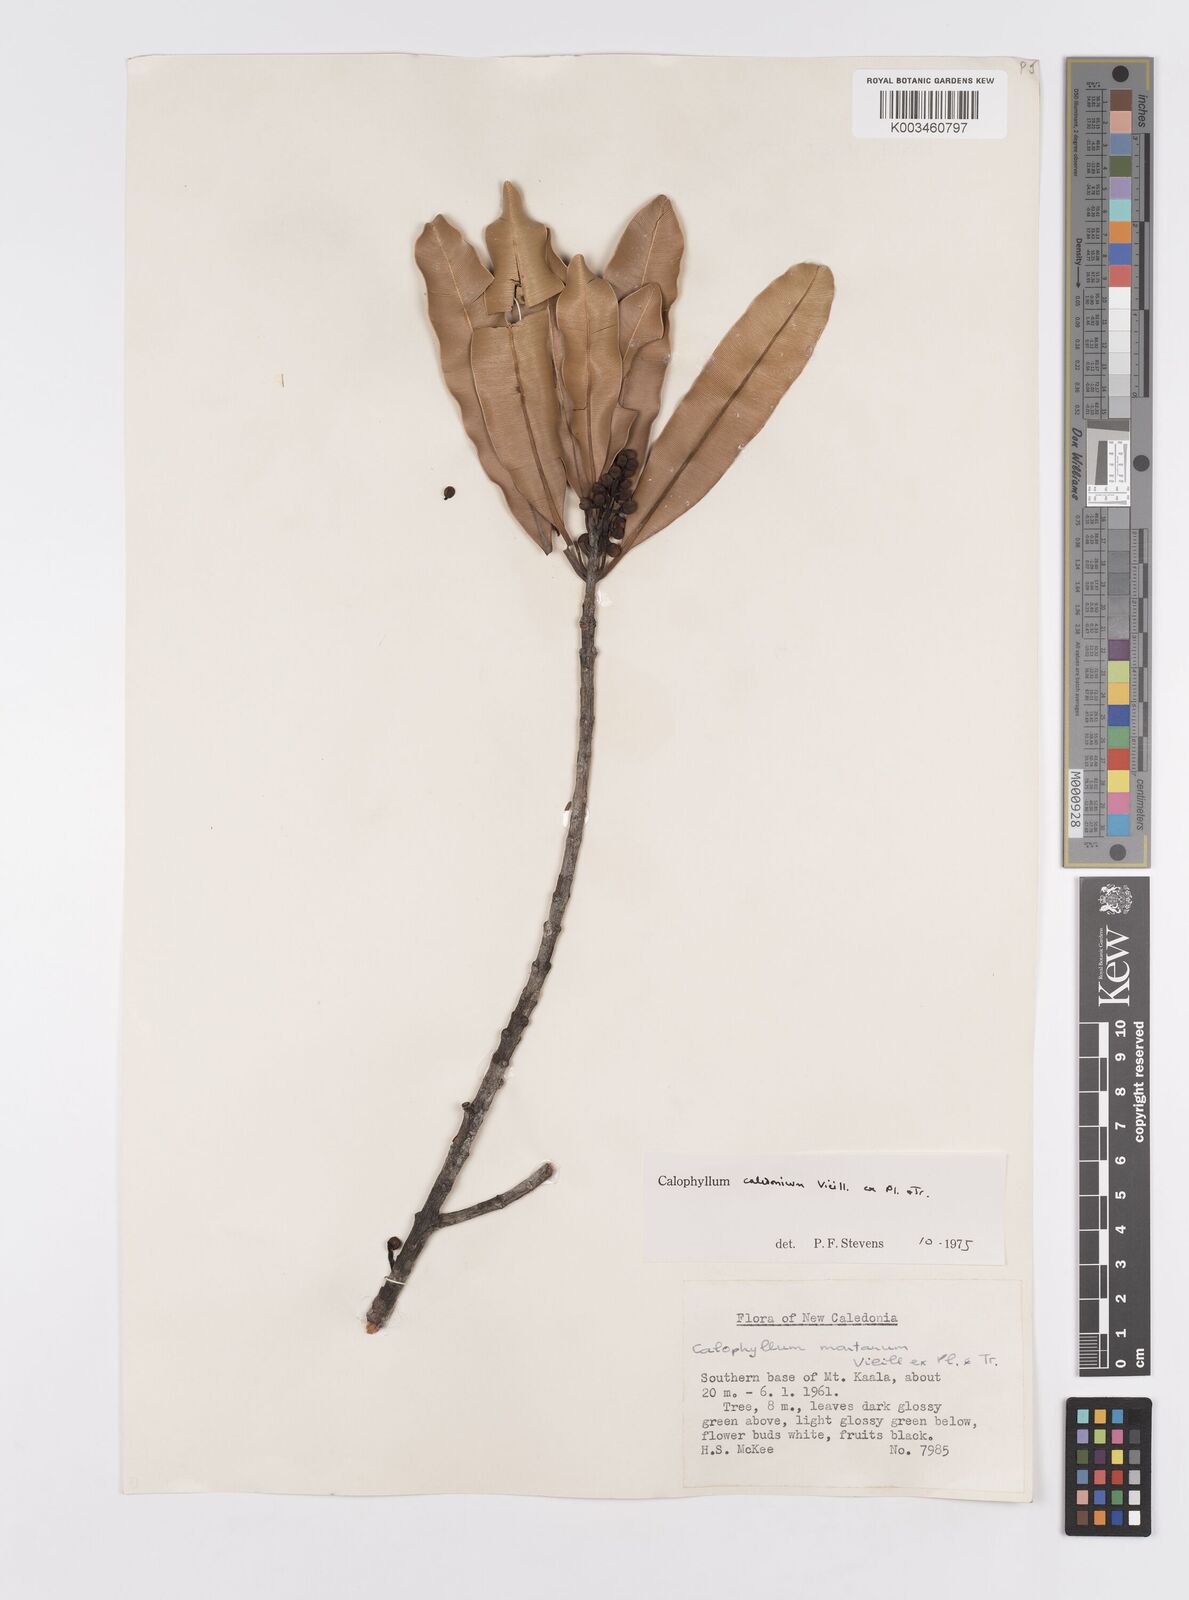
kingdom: Plantae
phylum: Tracheophyta
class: Magnoliopsida
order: Malpighiales
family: Calophyllaceae
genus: Calophyllum
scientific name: Calophyllum caledonicum
